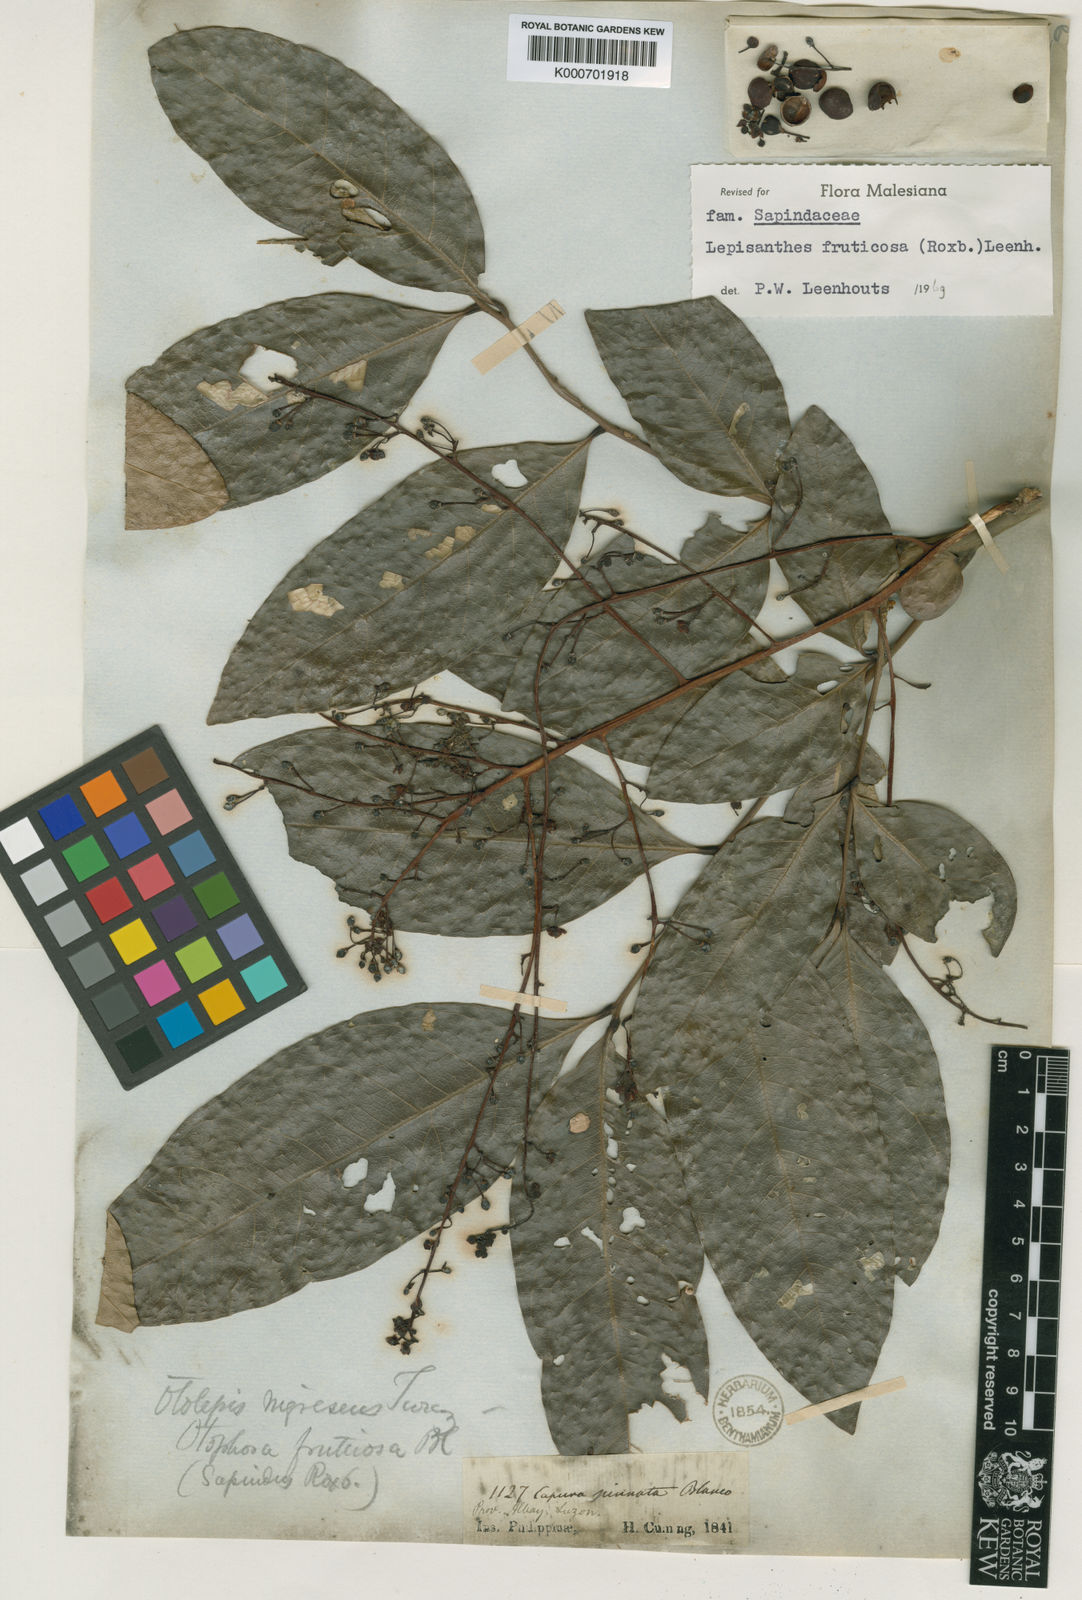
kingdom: Plantae
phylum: Tracheophyta
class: Magnoliopsida
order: Sapindales
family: Sapindaceae
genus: Lepisanthes
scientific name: Lepisanthes fruticosa
